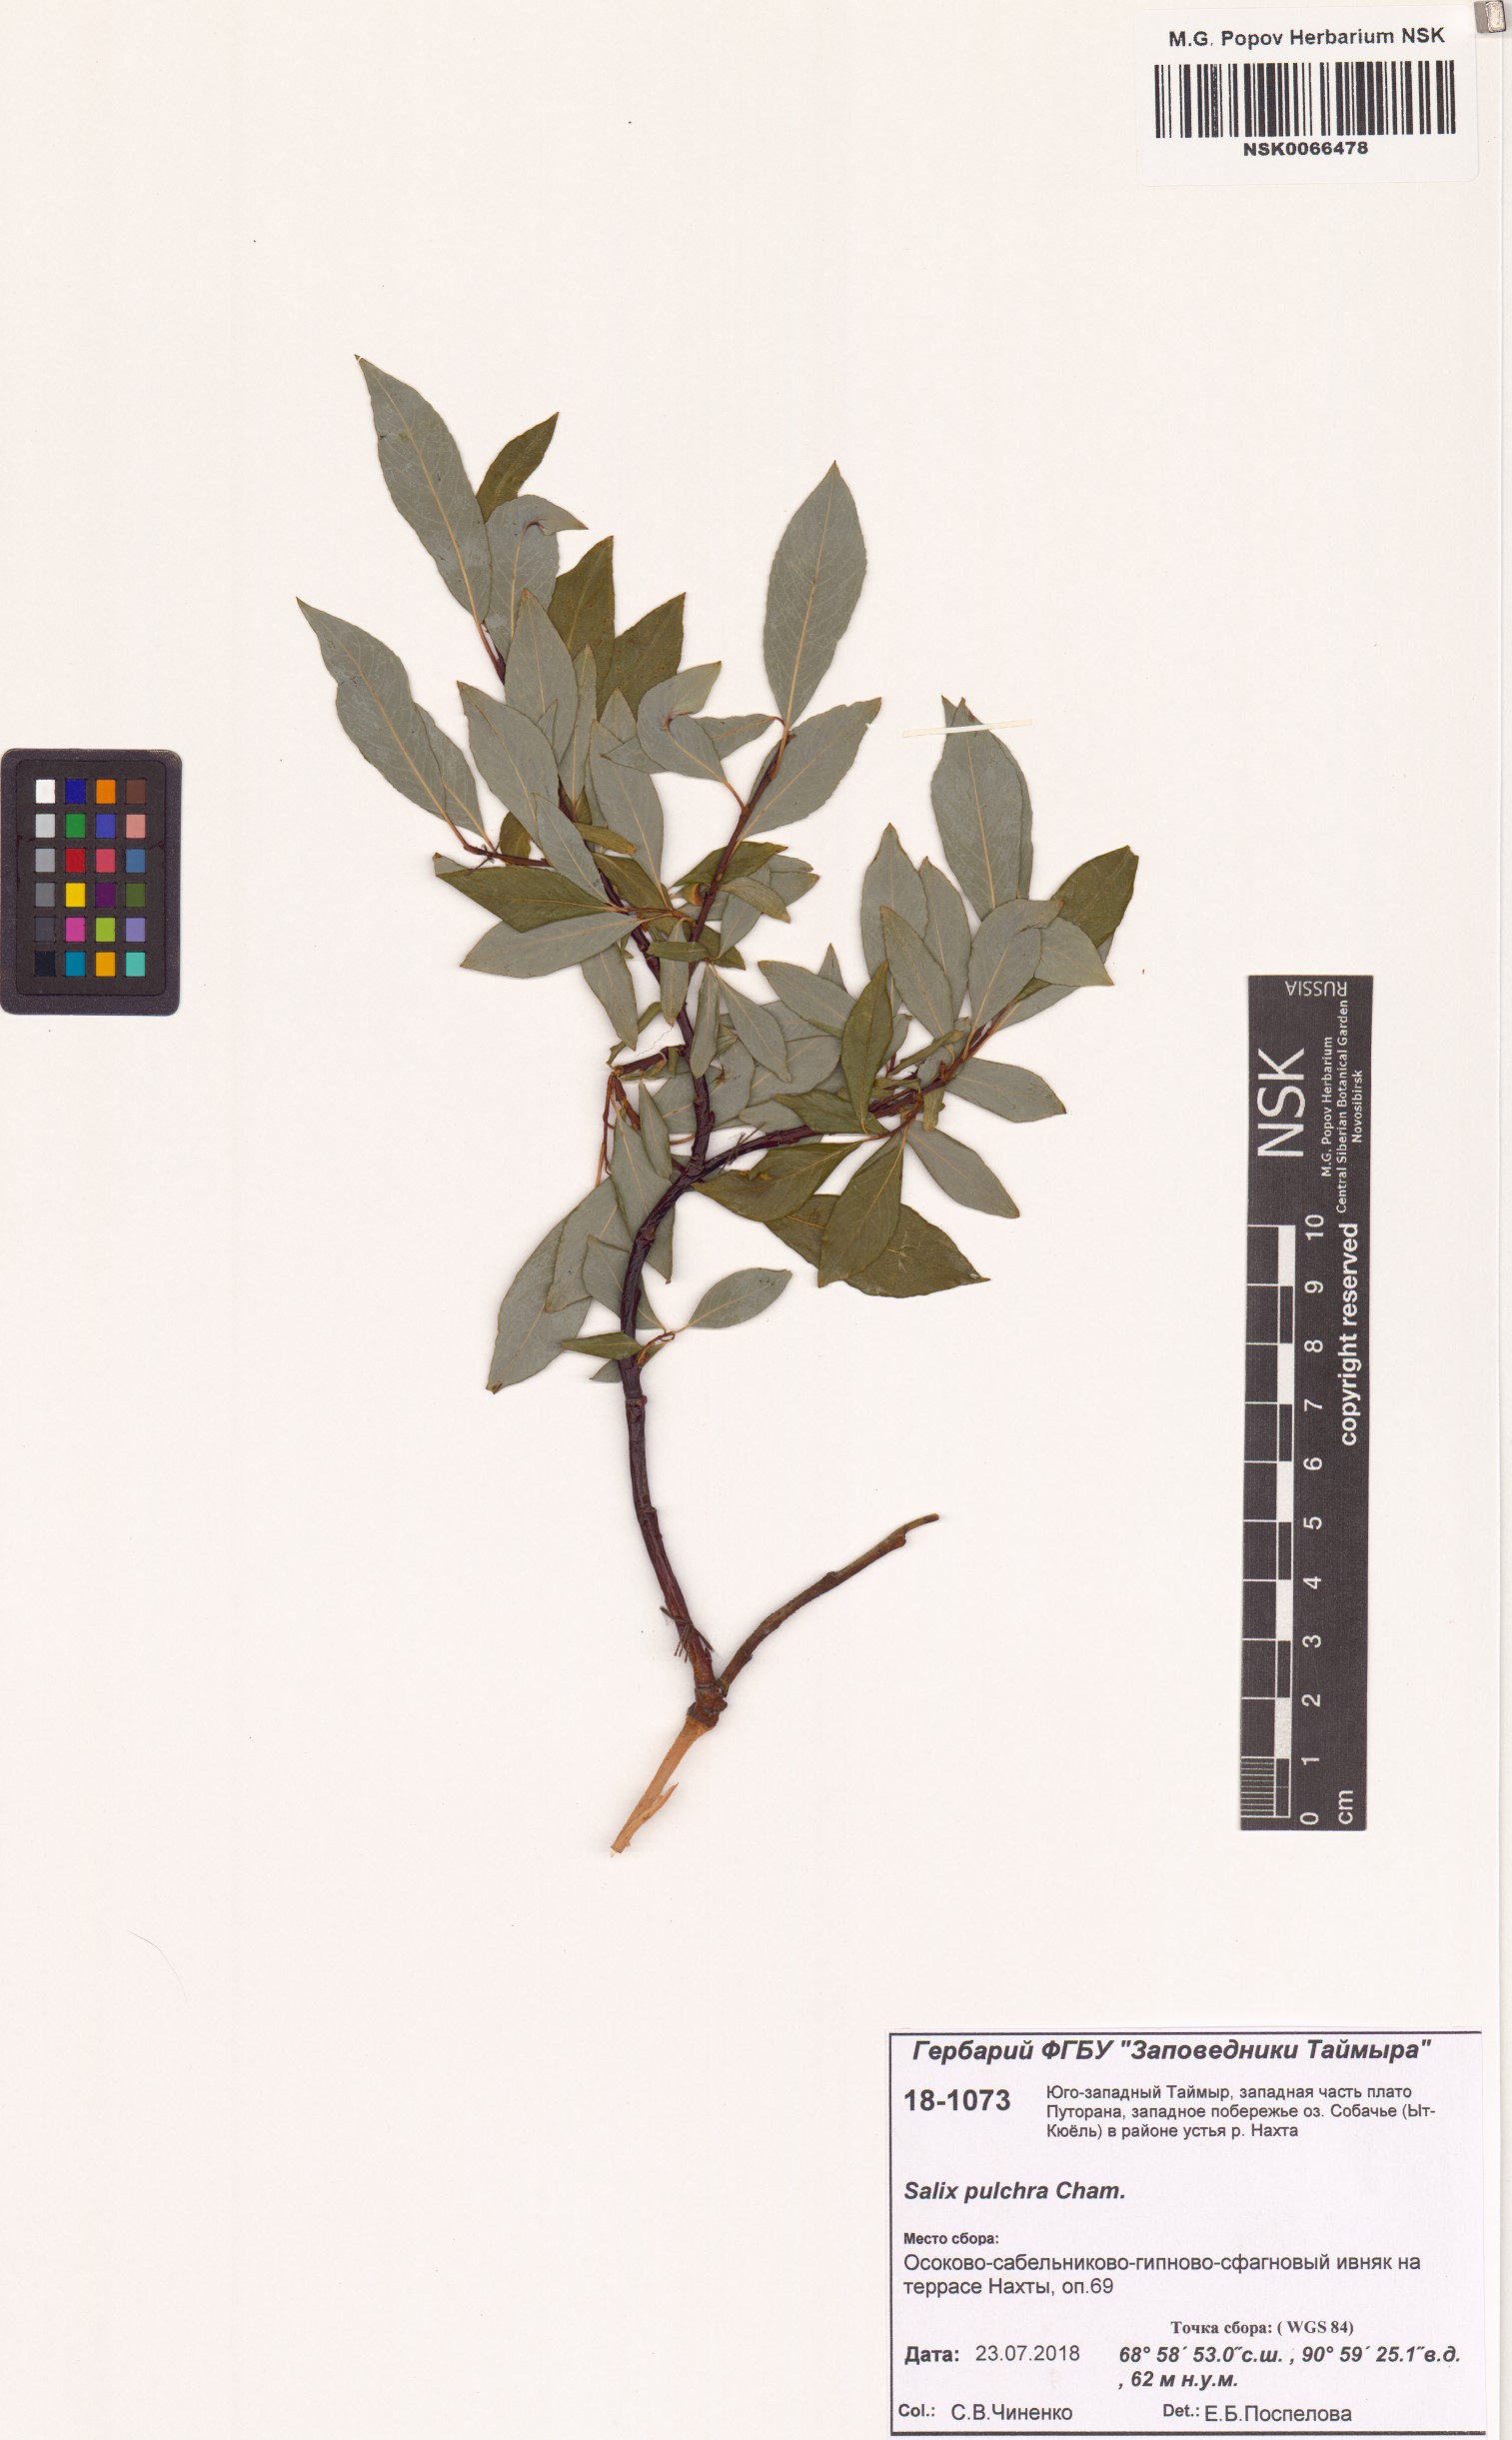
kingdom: Plantae
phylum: Tracheophyta
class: Magnoliopsida
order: Malpighiales
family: Salicaceae
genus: Salix
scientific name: Salix pulchra
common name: Diamond-leaved willow
